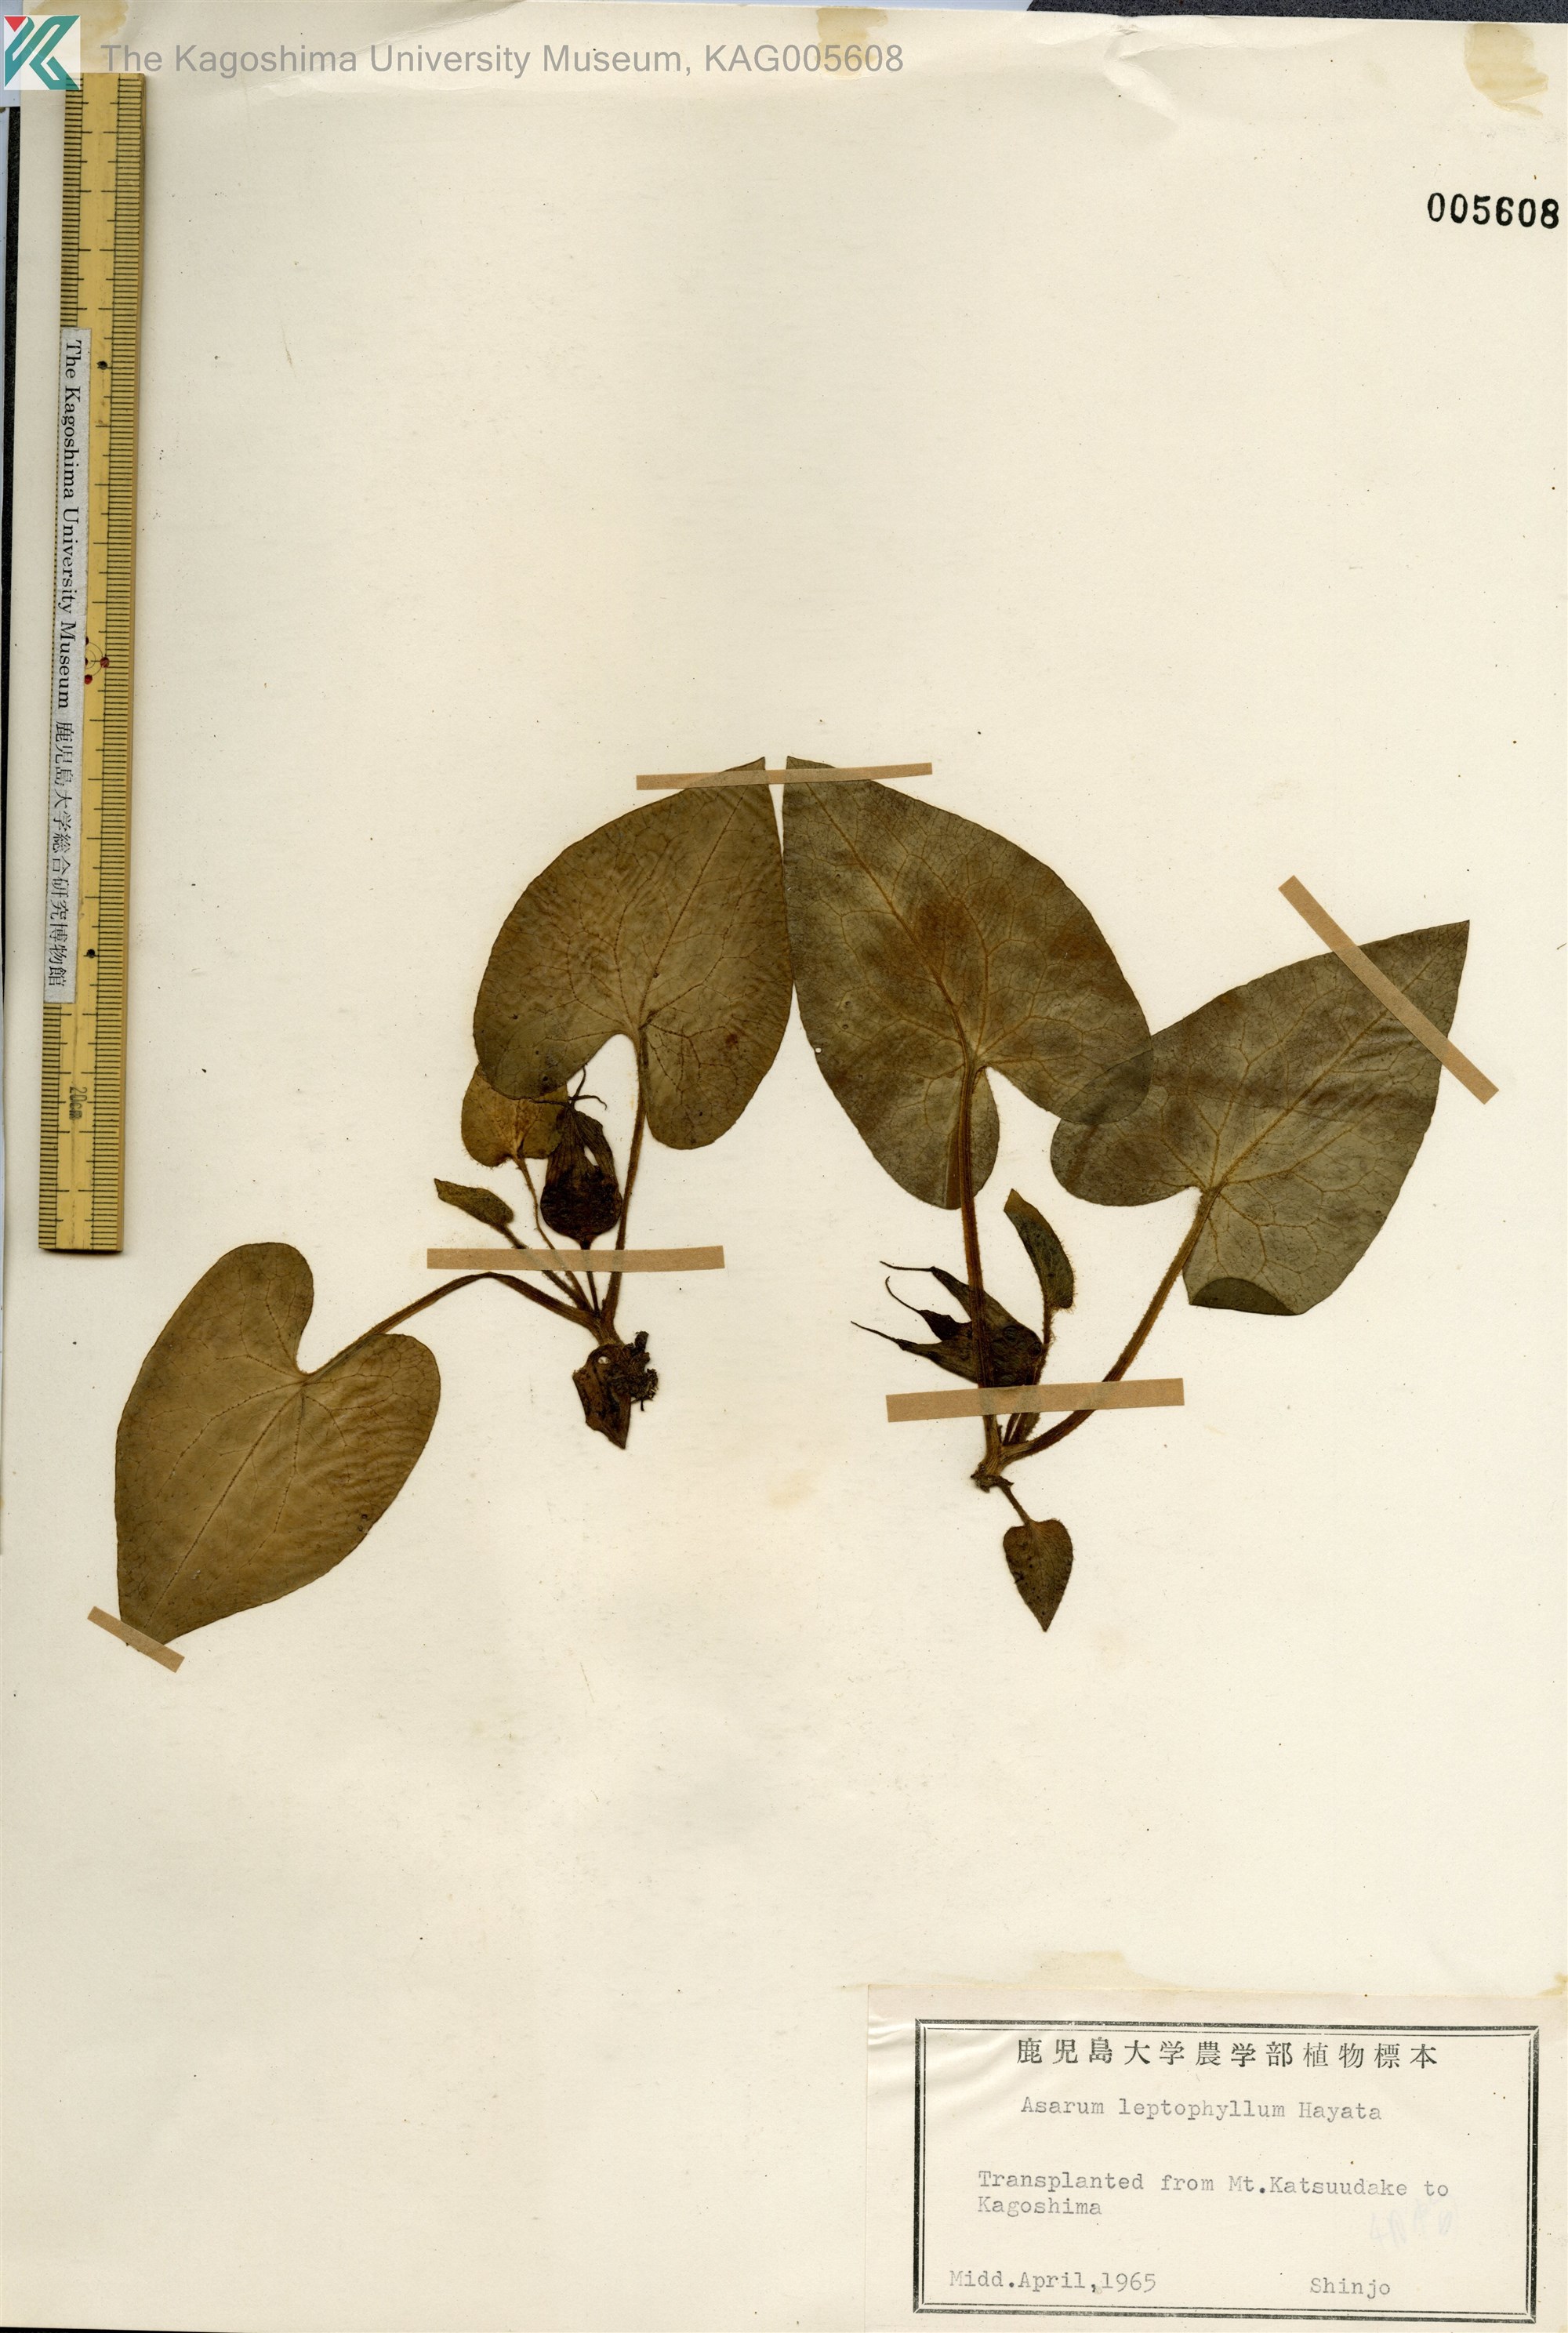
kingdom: Plantae
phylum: Tracheophyta
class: Magnoliopsida
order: Piperales
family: Aristolochiaceae
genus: Asarum
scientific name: Asarum caudigerum
